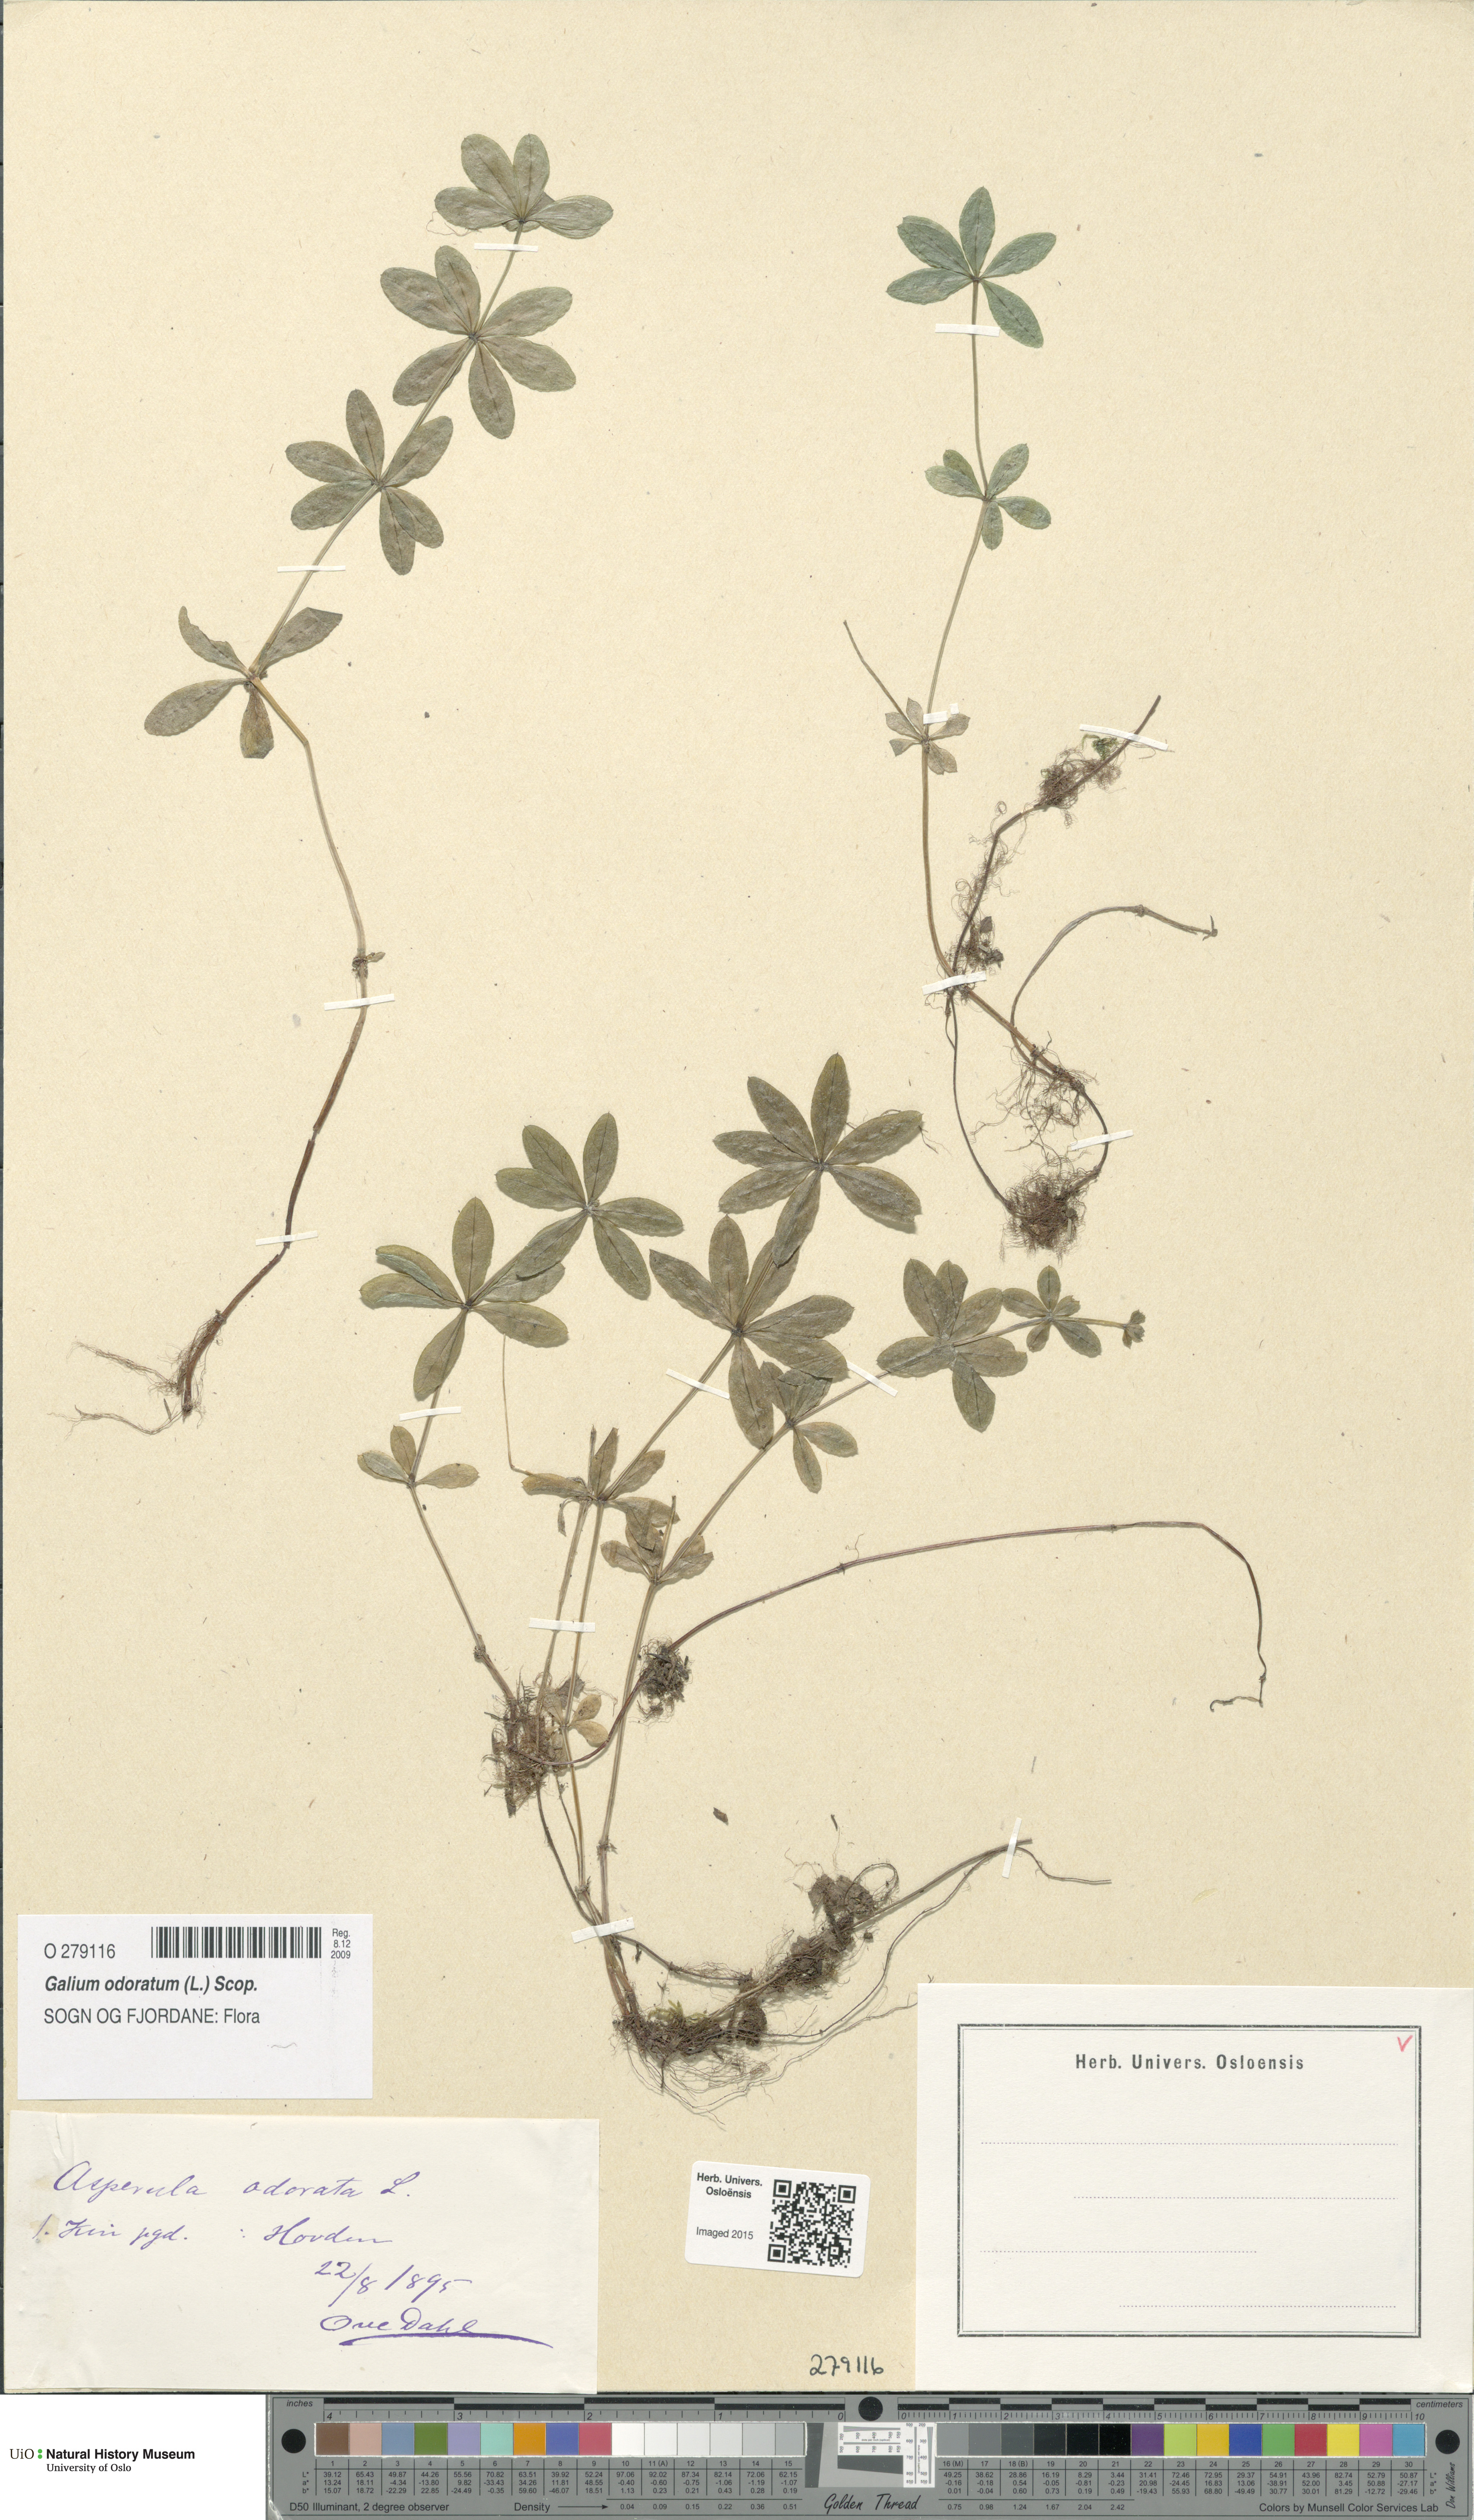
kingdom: Plantae
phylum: Tracheophyta
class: Magnoliopsida
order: Gentianales
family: Rubiaceae
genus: Galium
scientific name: Galium odoratum
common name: Sweet woodruff
